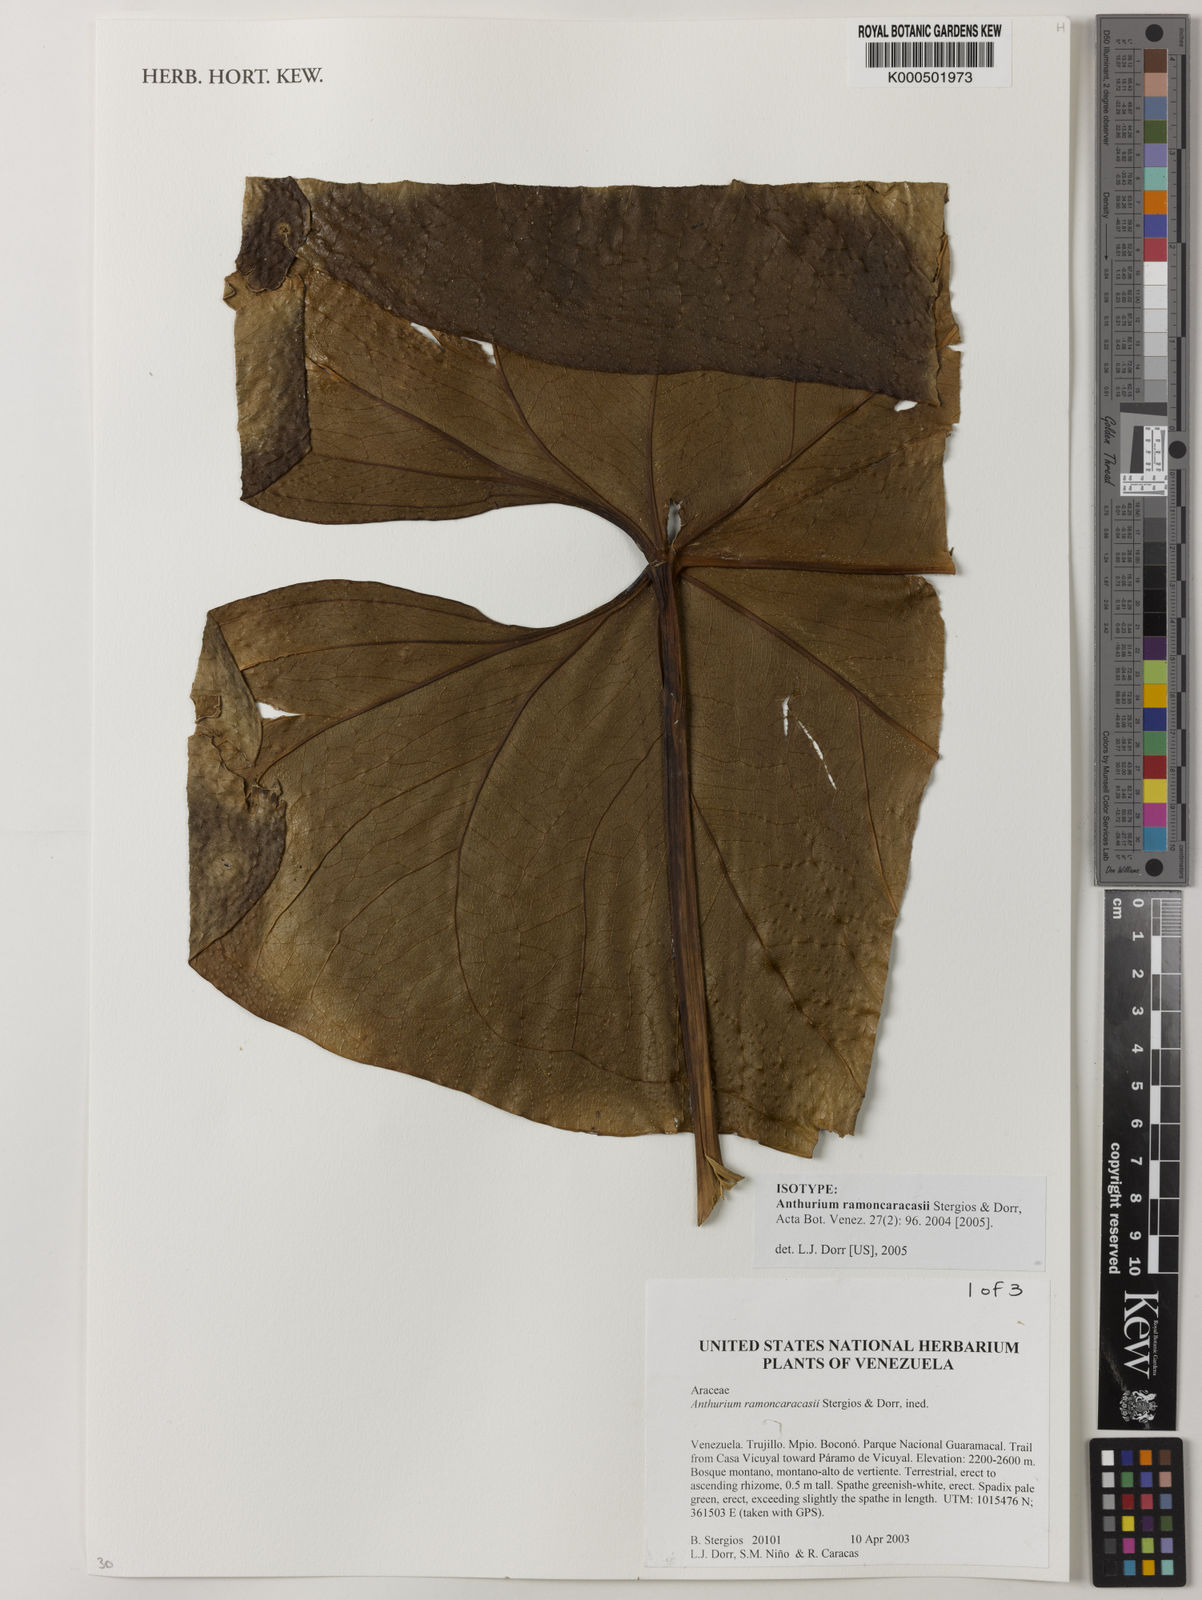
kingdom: Plantae
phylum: Tracheophyta
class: Liliopsida
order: Alismatales
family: Araceae
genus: Anthurium
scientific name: Anthurium ramoncaracasii
